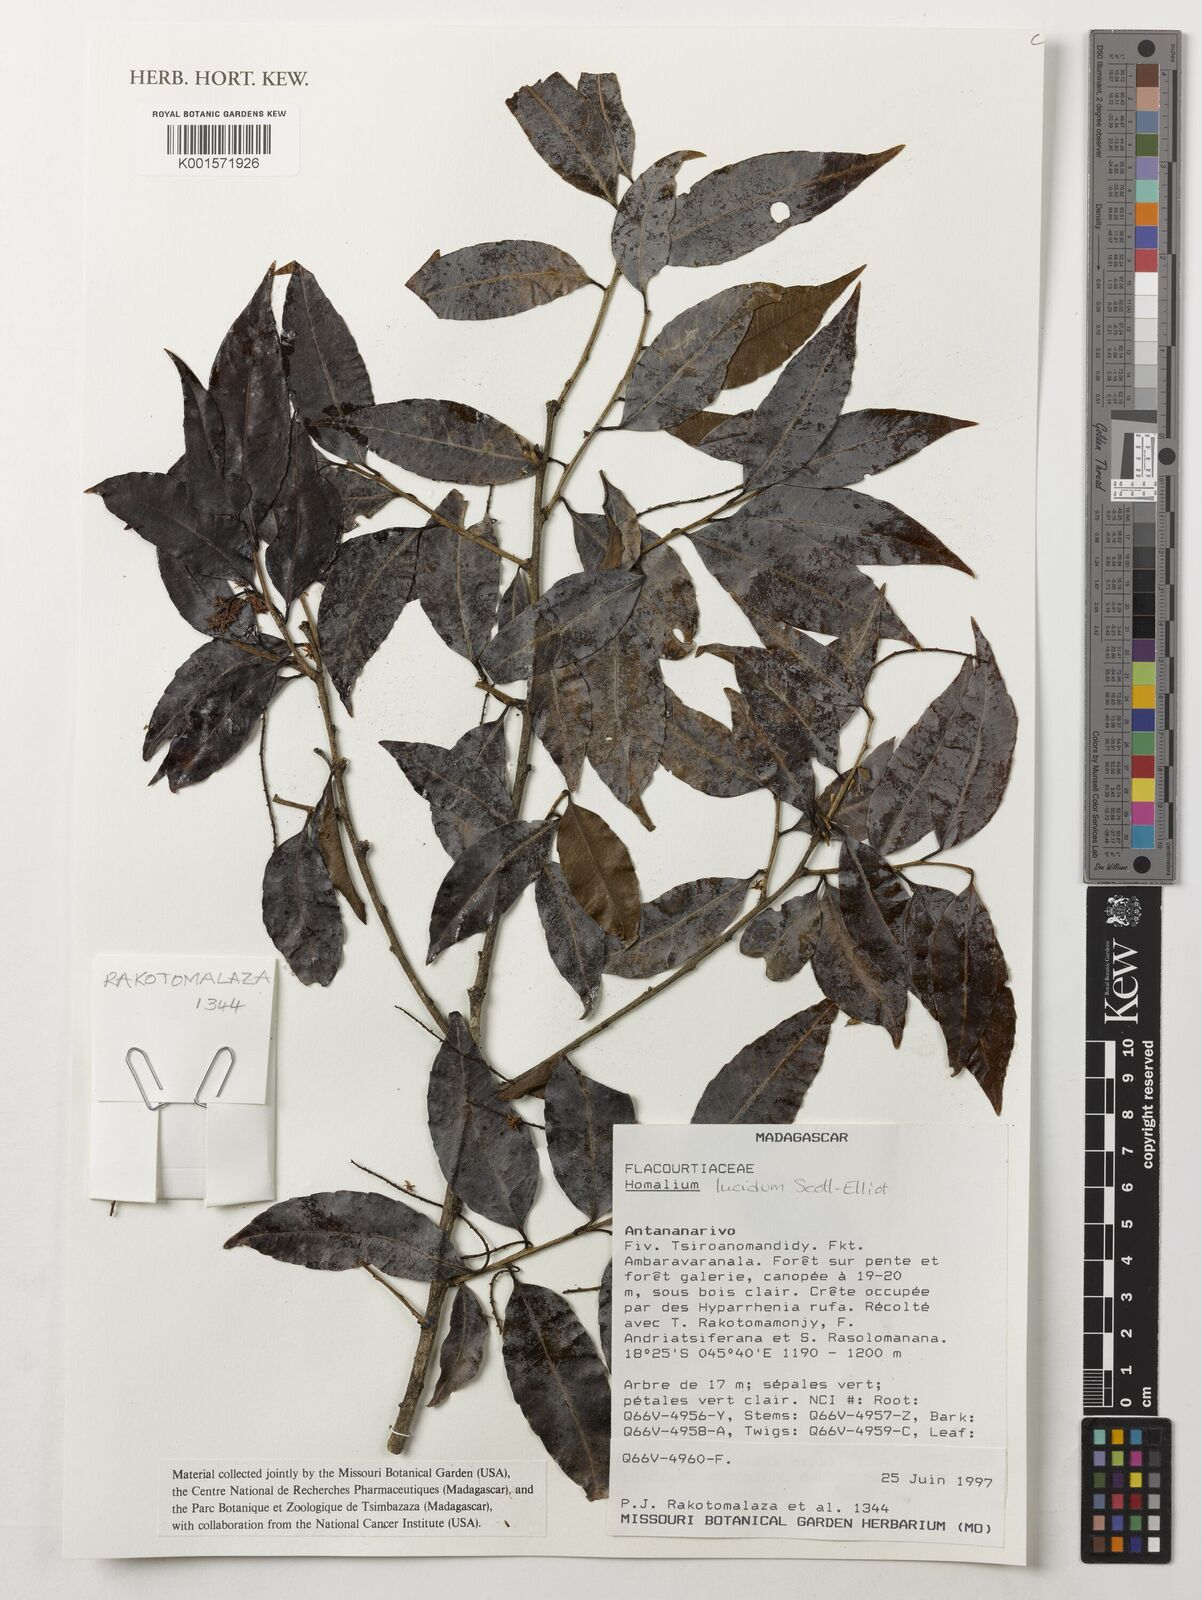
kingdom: Plantae
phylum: Tracheophyta
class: Magnoliopsida
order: Malpighiales
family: Salicaceae
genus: Homalium
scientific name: Homalium lucidum
